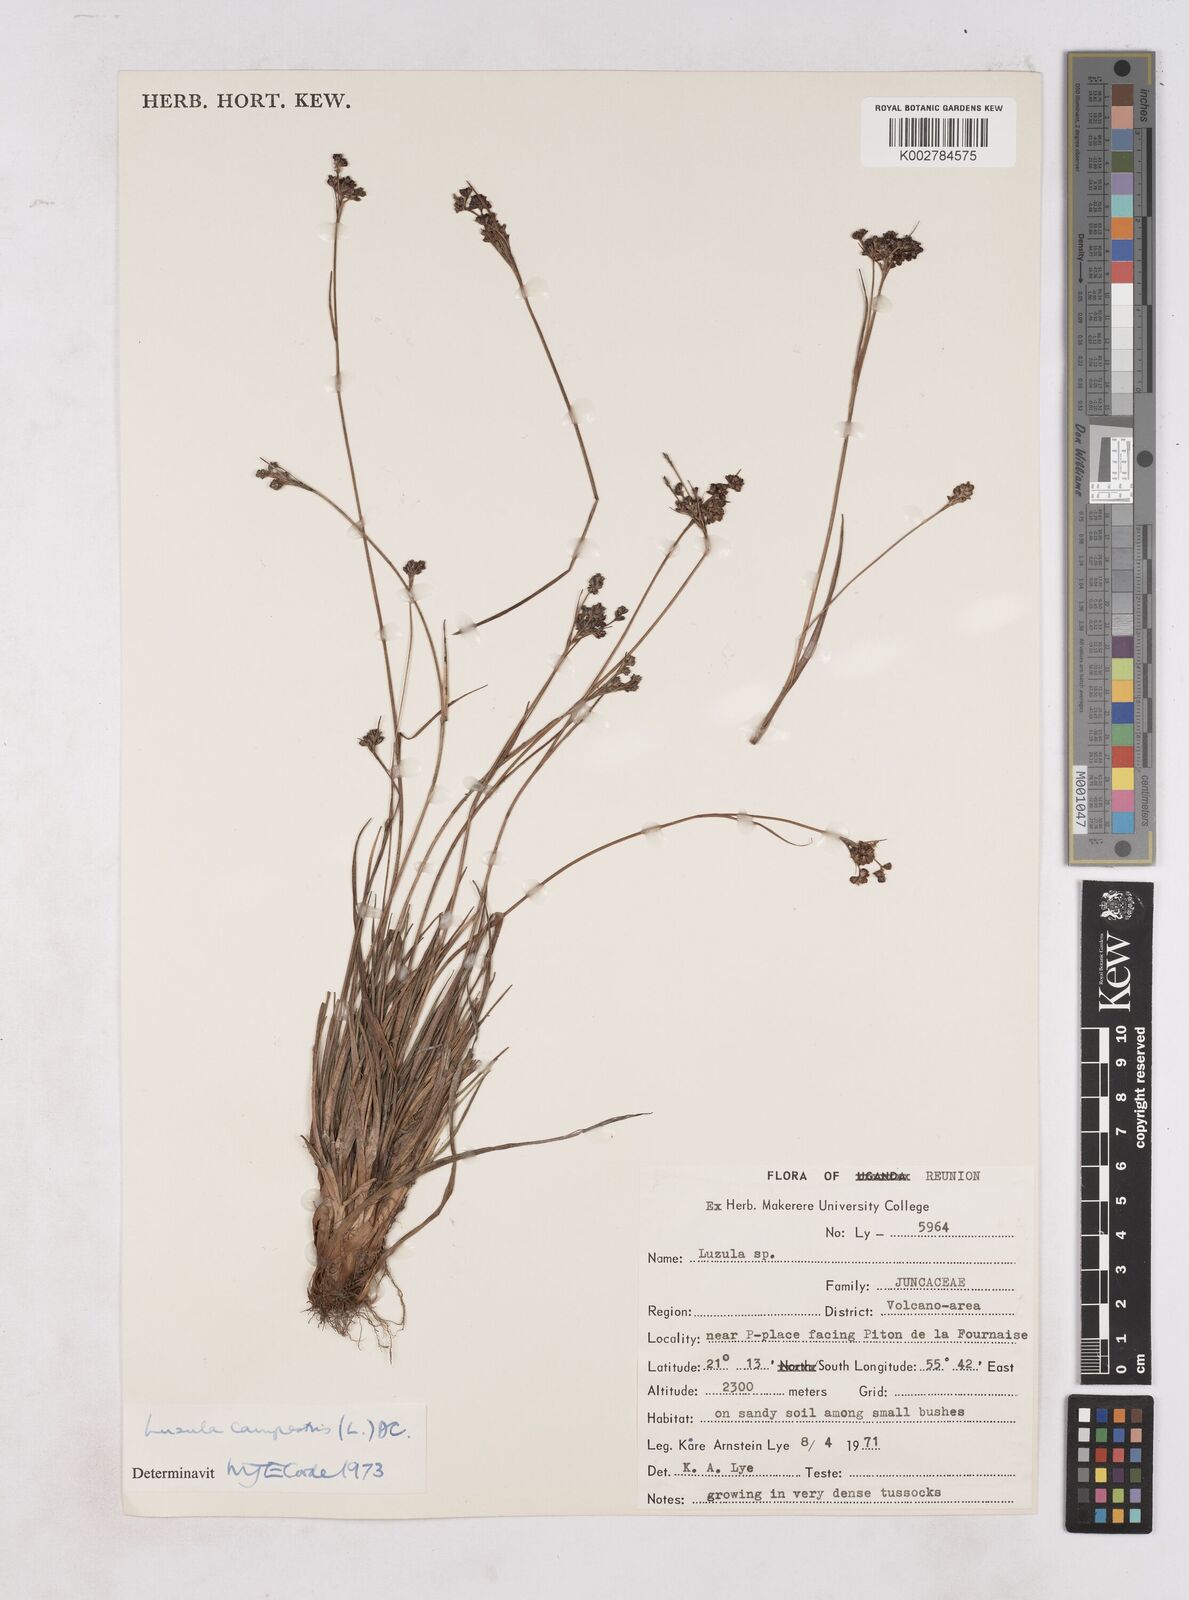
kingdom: Plantae
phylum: Tracheophyta
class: Liliopsida
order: Poales
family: Juncaceae
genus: Luzula
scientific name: Luzula campestris
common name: Field wood-rush
